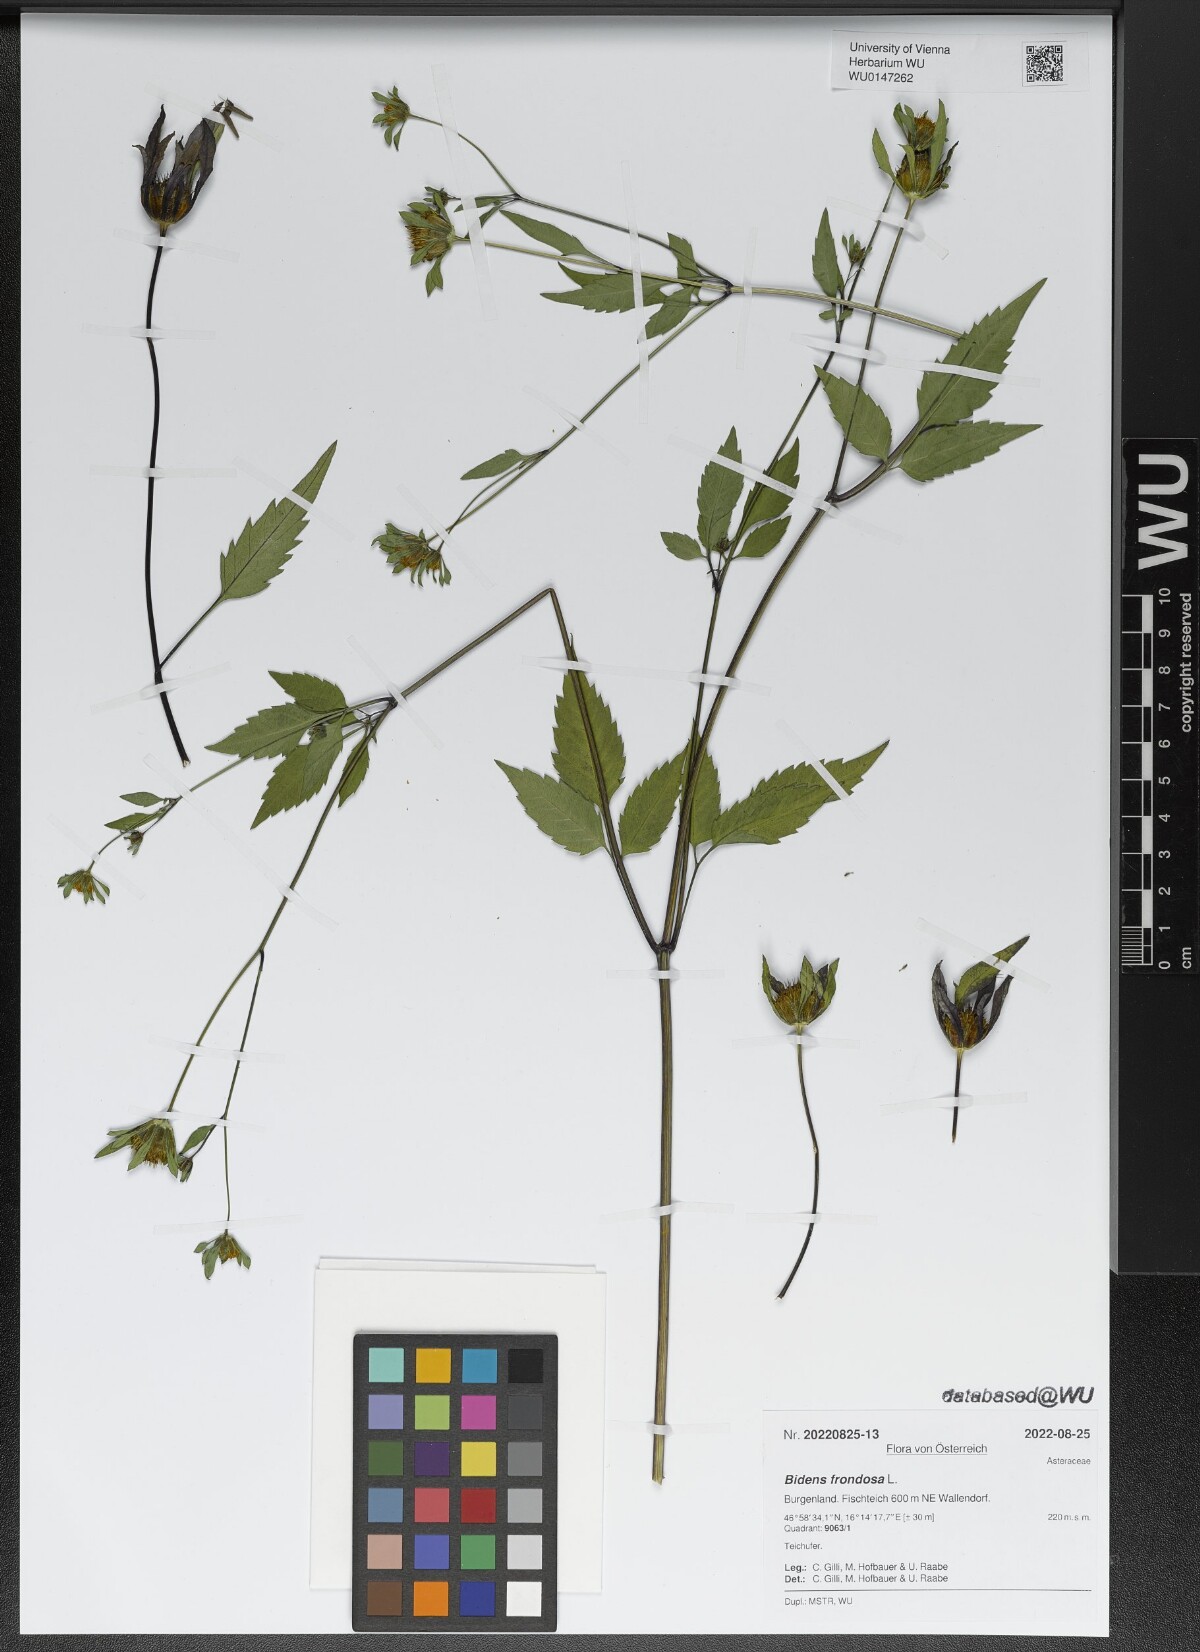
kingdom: Plantae
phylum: Tracheophyta
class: Magnoliopsida
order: Asterales
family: Asteraceae
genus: Bidens
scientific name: Bidens frondosa
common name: Beggarticks
